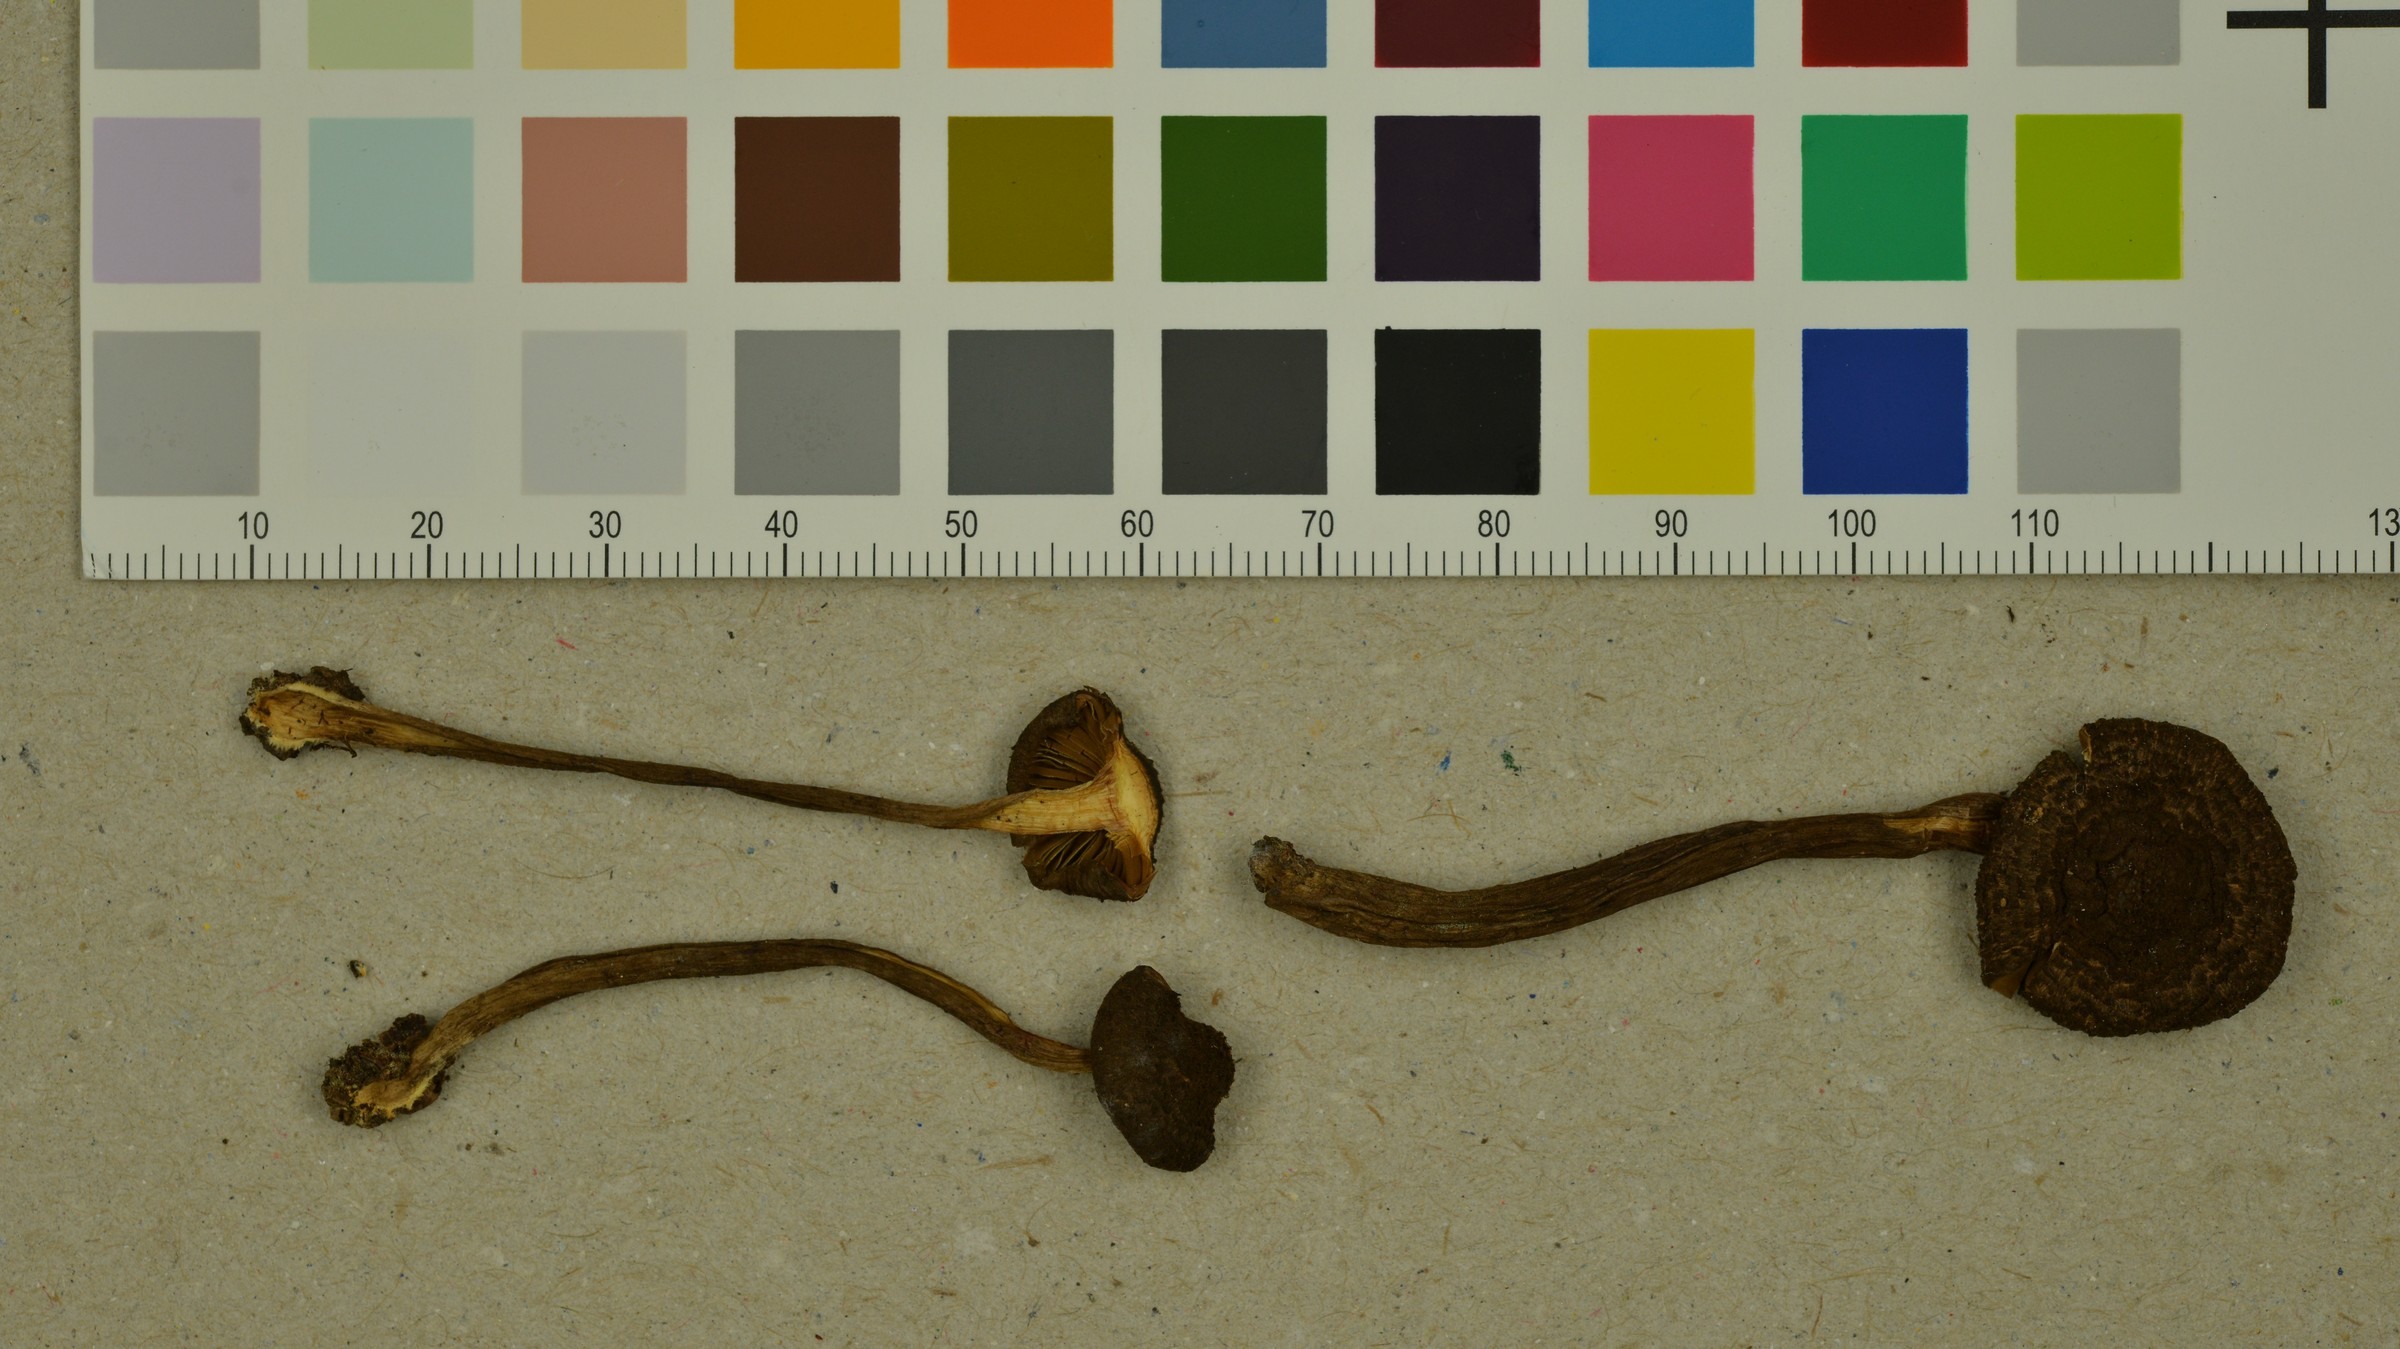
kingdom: Fungi
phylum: Basidiomycota
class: Agaricomycetes
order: Agaricales
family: Inocybaceae
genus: Inocybe
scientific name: Inocybe relicina
